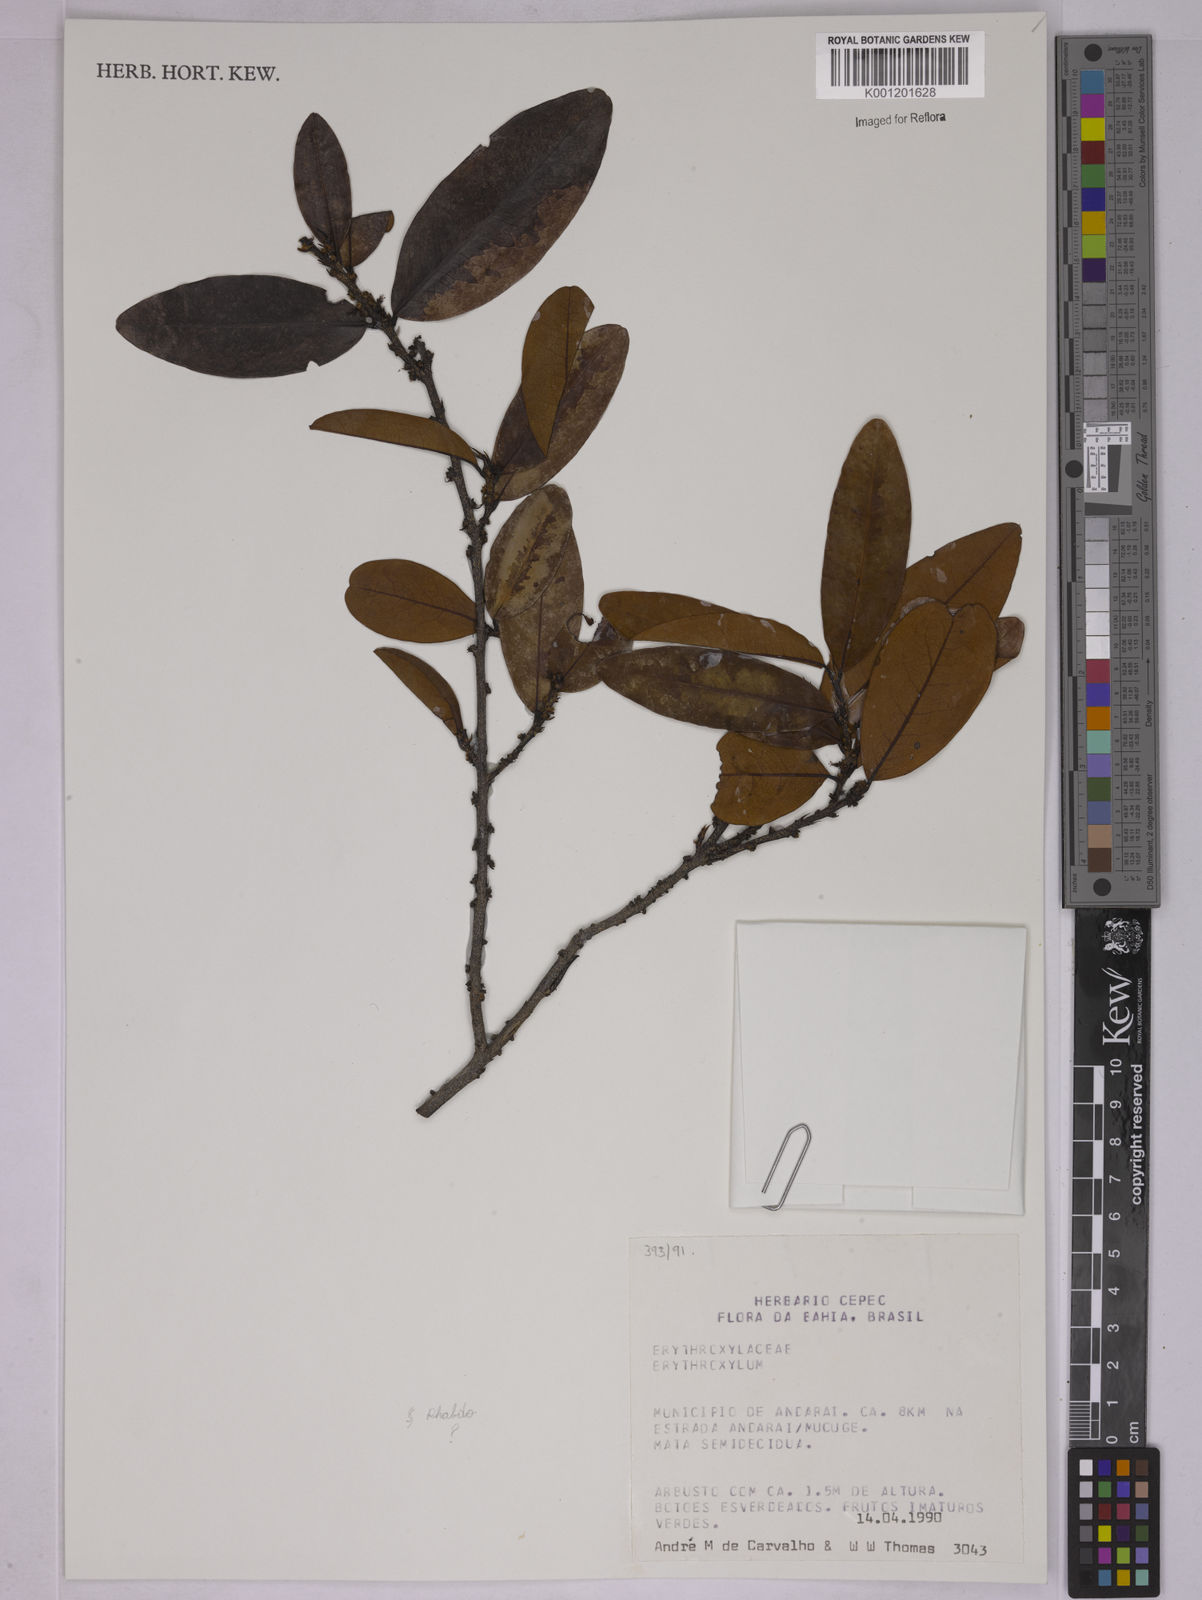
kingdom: Plantae
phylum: Tracheophyta
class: Magnoliopsida
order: Malpighiales
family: Erythroxylaceae
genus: Erythroxylum
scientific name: Erythroxylum
